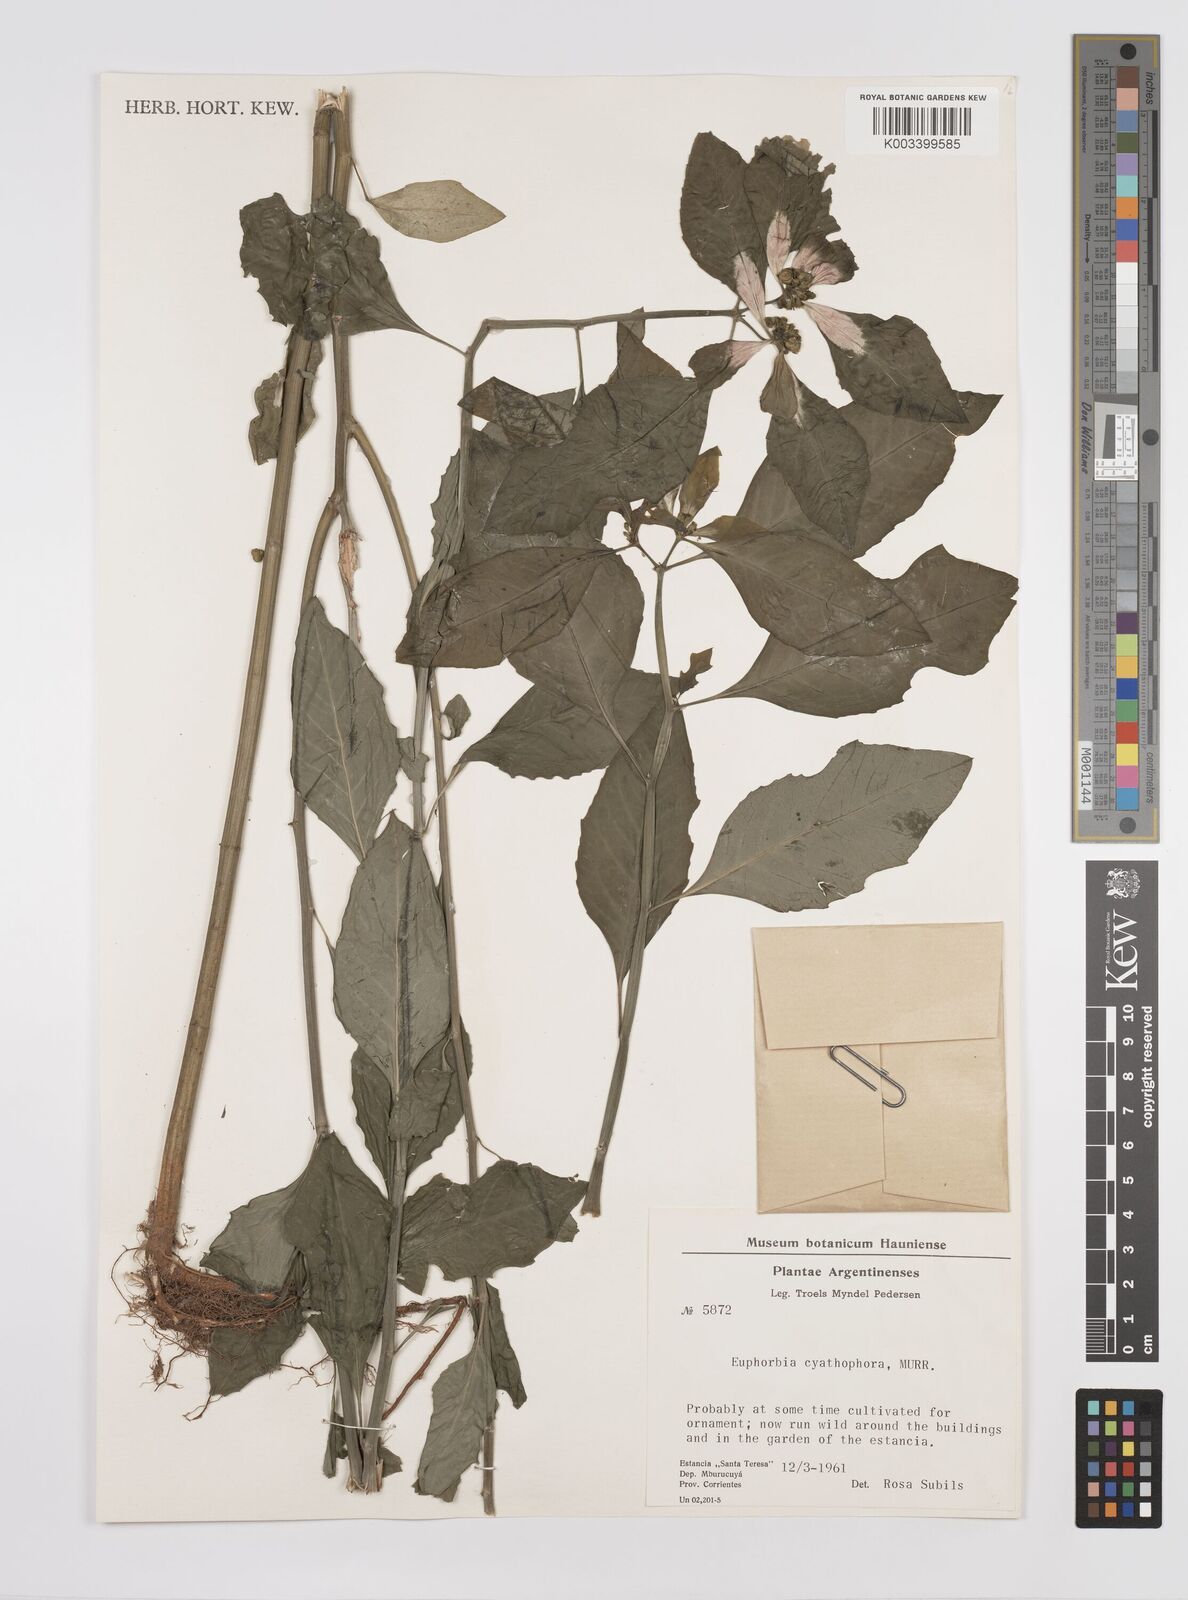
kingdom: Plantae
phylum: Tracheophyta
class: Magnoliopsida
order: Malpighiales
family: Euphorbiaceae
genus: Euphorbia
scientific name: Euphorbia heterophylla
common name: Mexican fireplant
